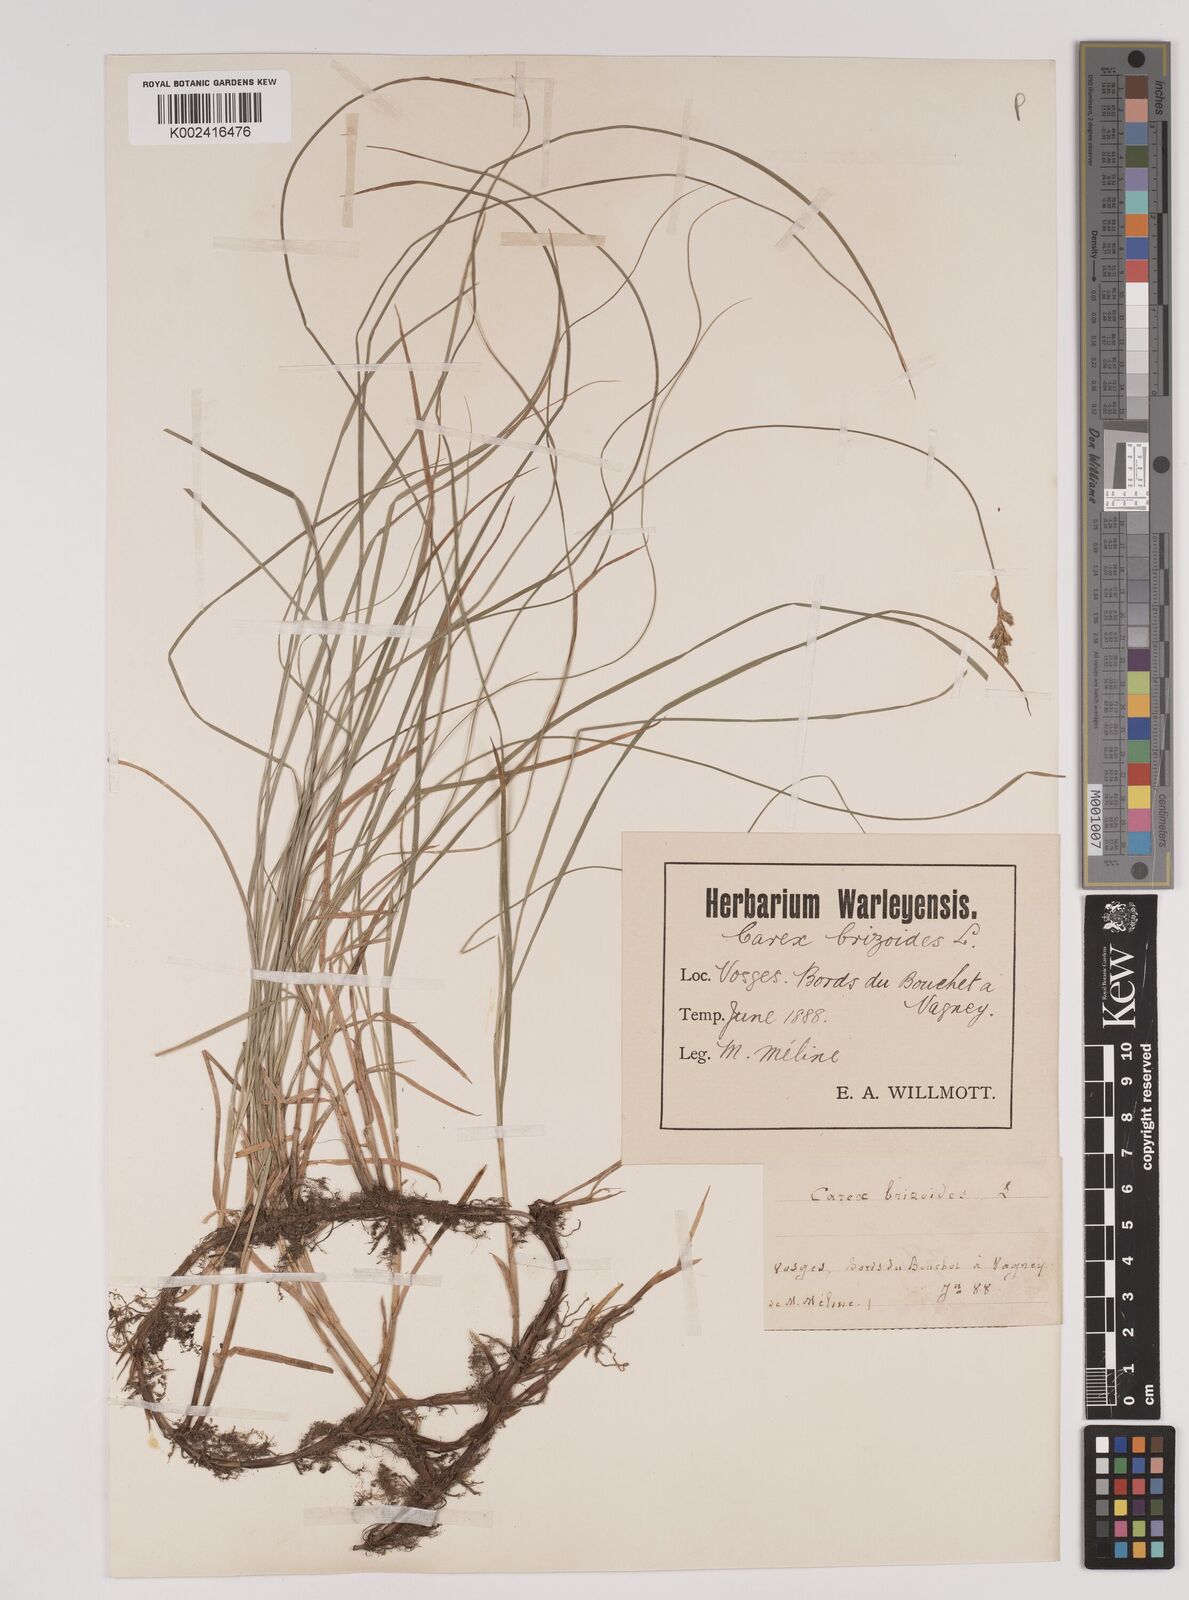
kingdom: Plantae
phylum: Tracheophyta
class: Liliopsida
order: Poales
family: Cyperaceae
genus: Carex
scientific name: Carex brizoides
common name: Quaking-grass sedge
